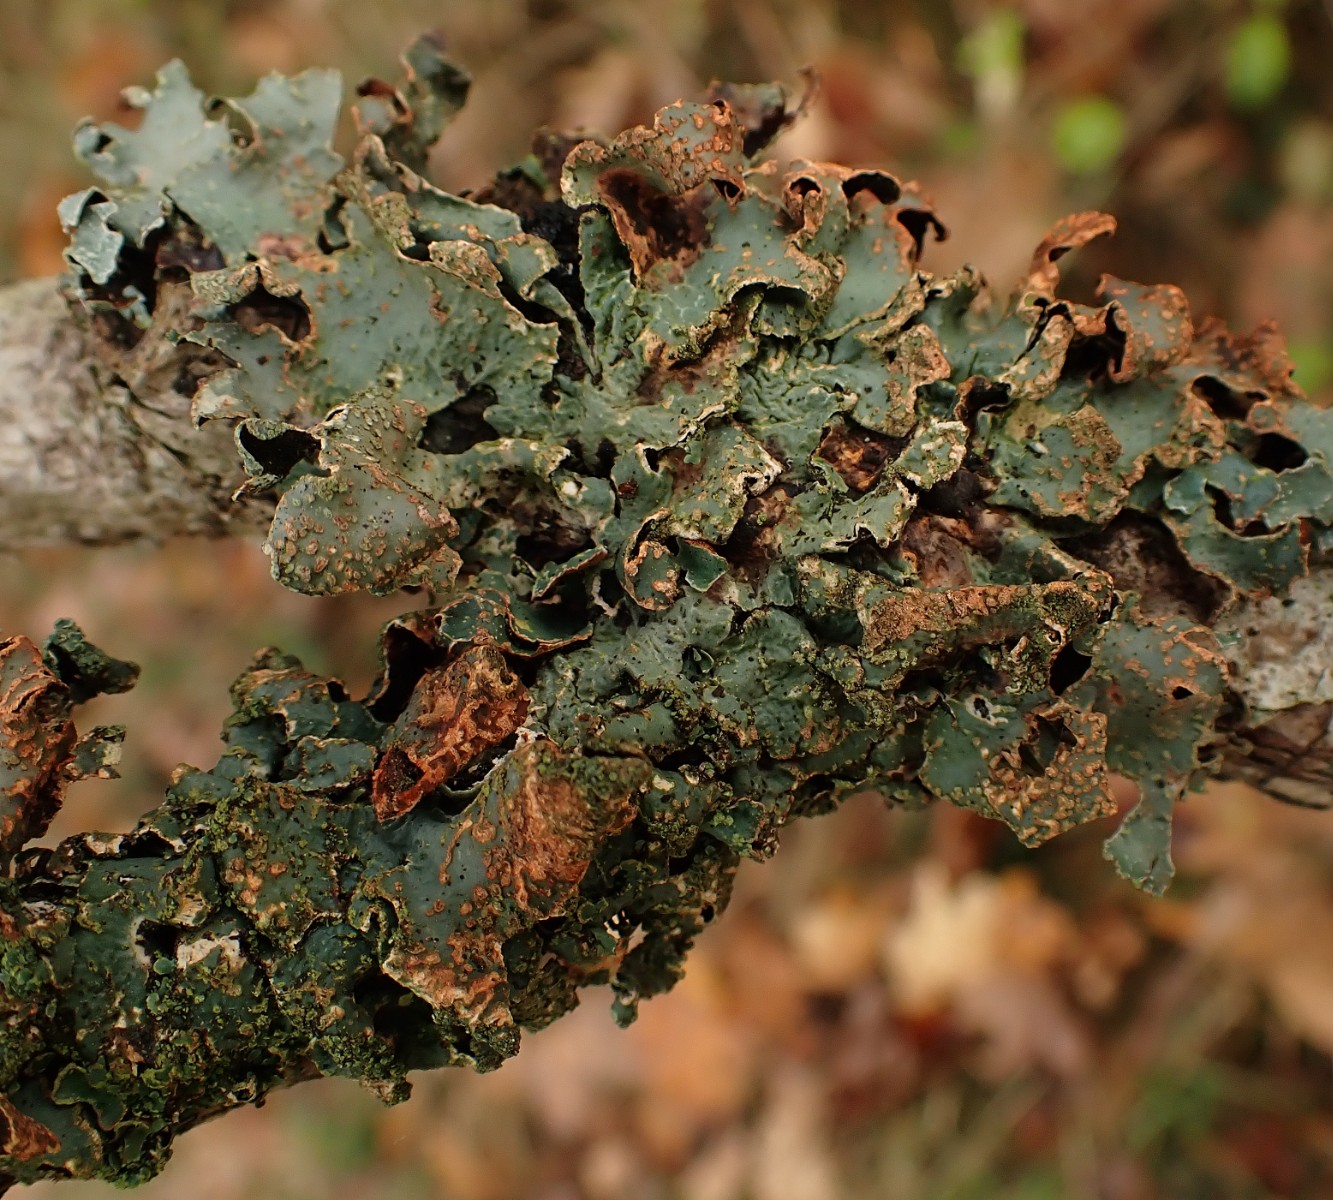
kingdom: Fungi
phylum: Ascomycota
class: Lecanoromycetes
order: Lecanorales
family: Parmeliaceae
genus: Parmelia
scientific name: Parmelia sulcata
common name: rynket skållav
